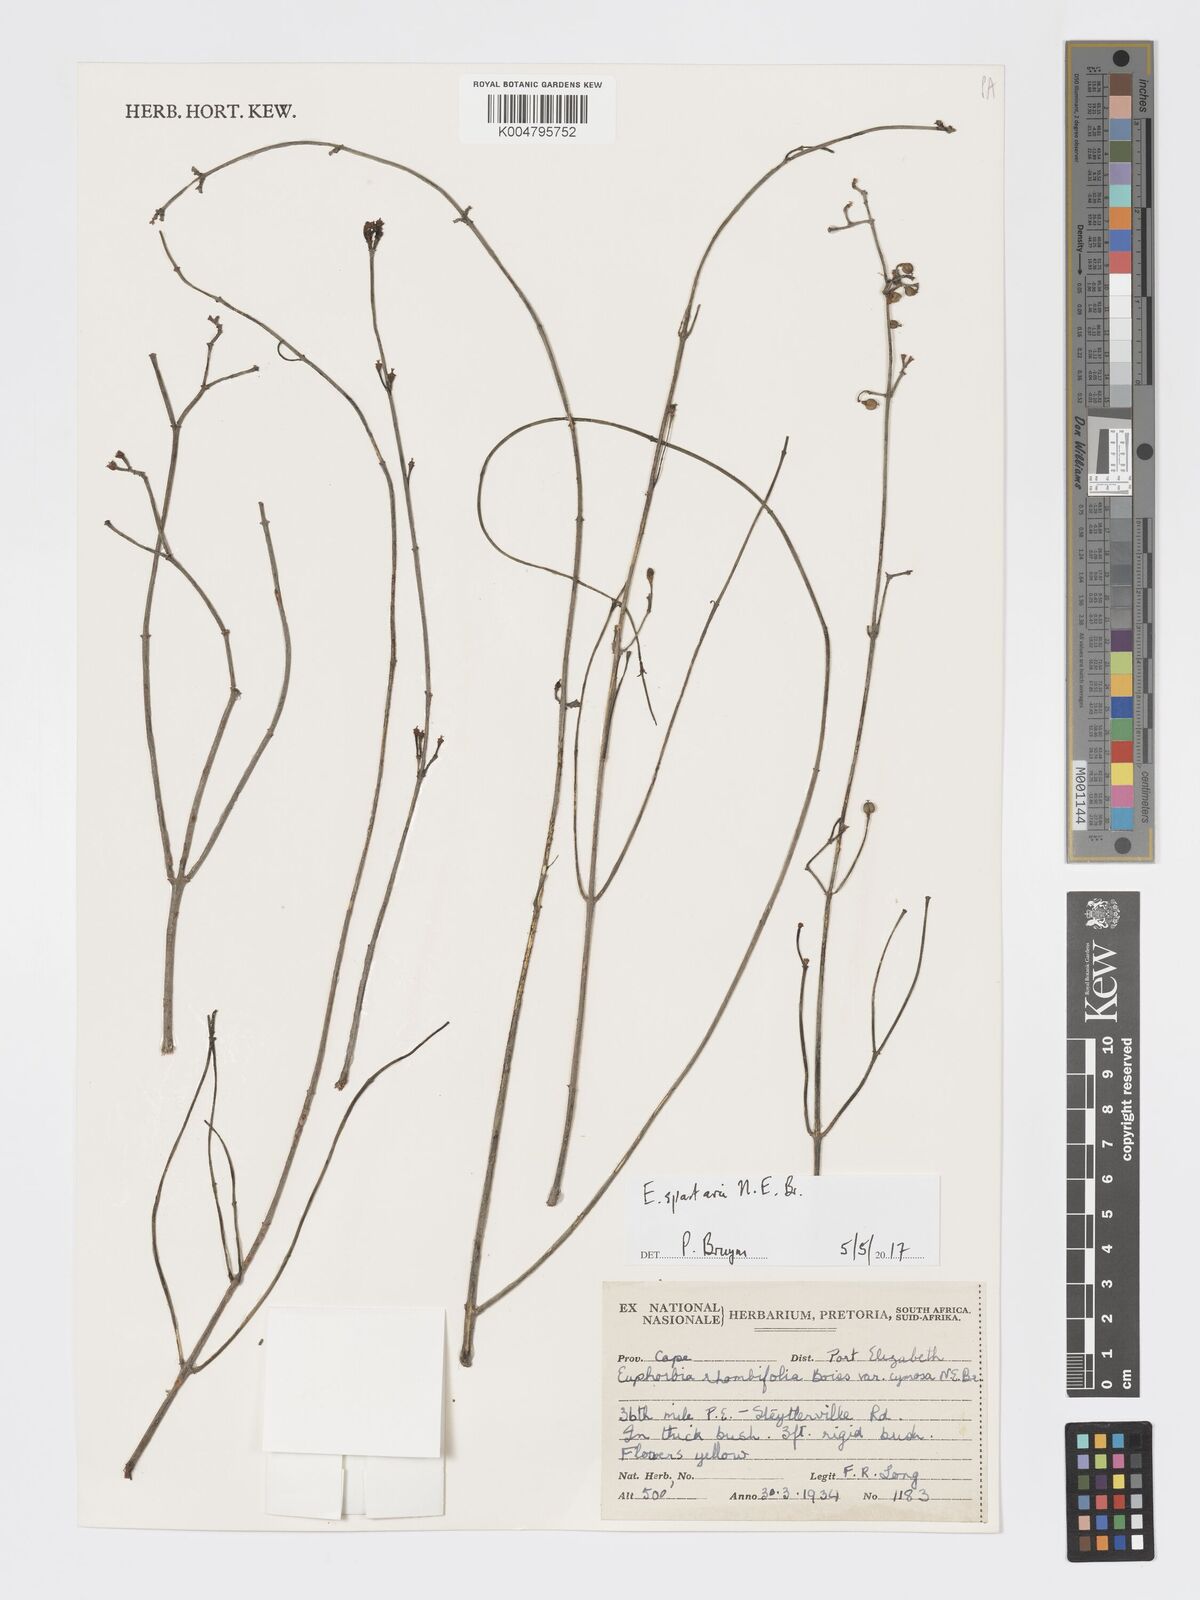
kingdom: Plantae
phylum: Tracheophyta
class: Magnoliopsida
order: Malpighiales
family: Euphorbiaceae
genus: Euphorbia
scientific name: Euphorbia spartaria
